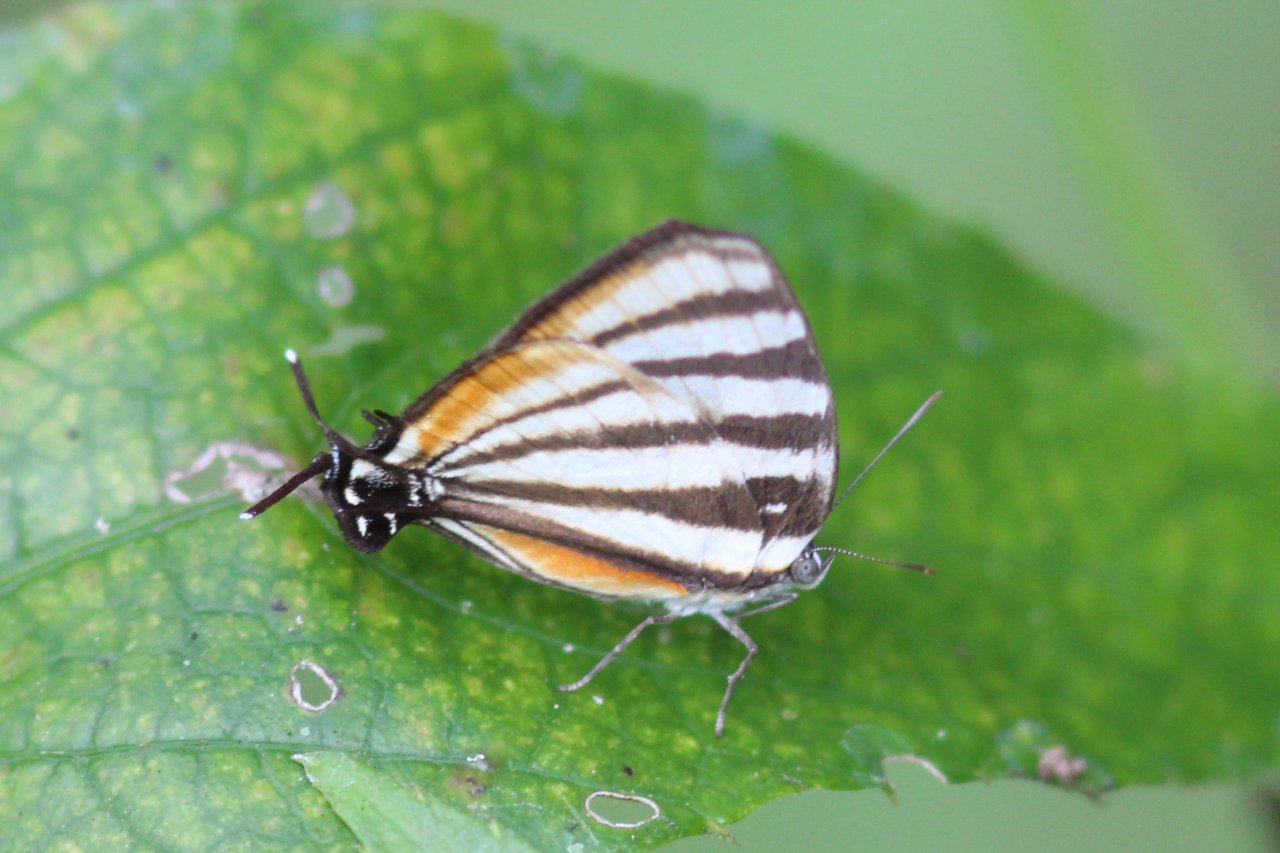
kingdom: Animalia
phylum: Arthropoda
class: Insecta
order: Lepidoptera
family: Lycaenidae
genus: Arawacus
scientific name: Arawacus togarna
